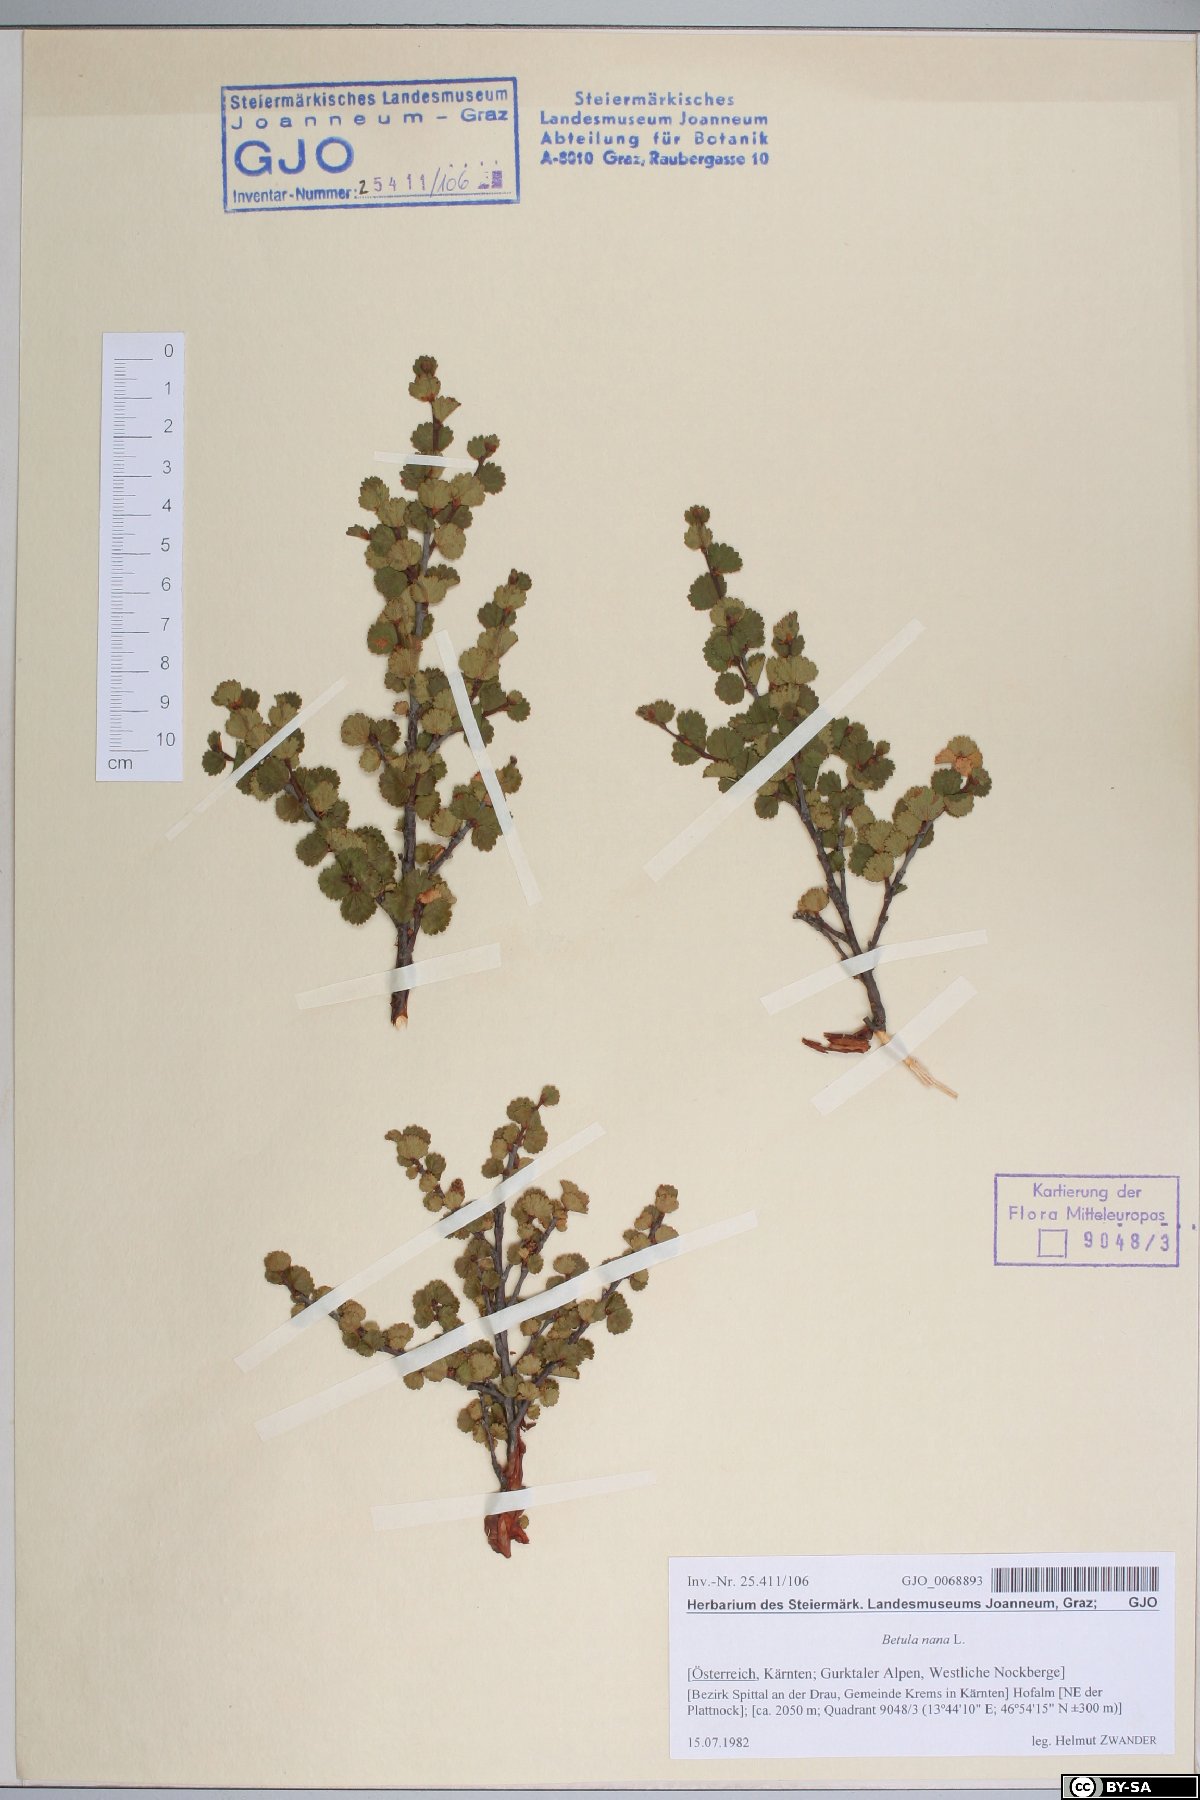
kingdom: Plantae
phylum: Tracheophyta
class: Magnoliopsida
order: Fagales
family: Betulaceae
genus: Betula
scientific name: Betula nana
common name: Arctic dwarf birch
